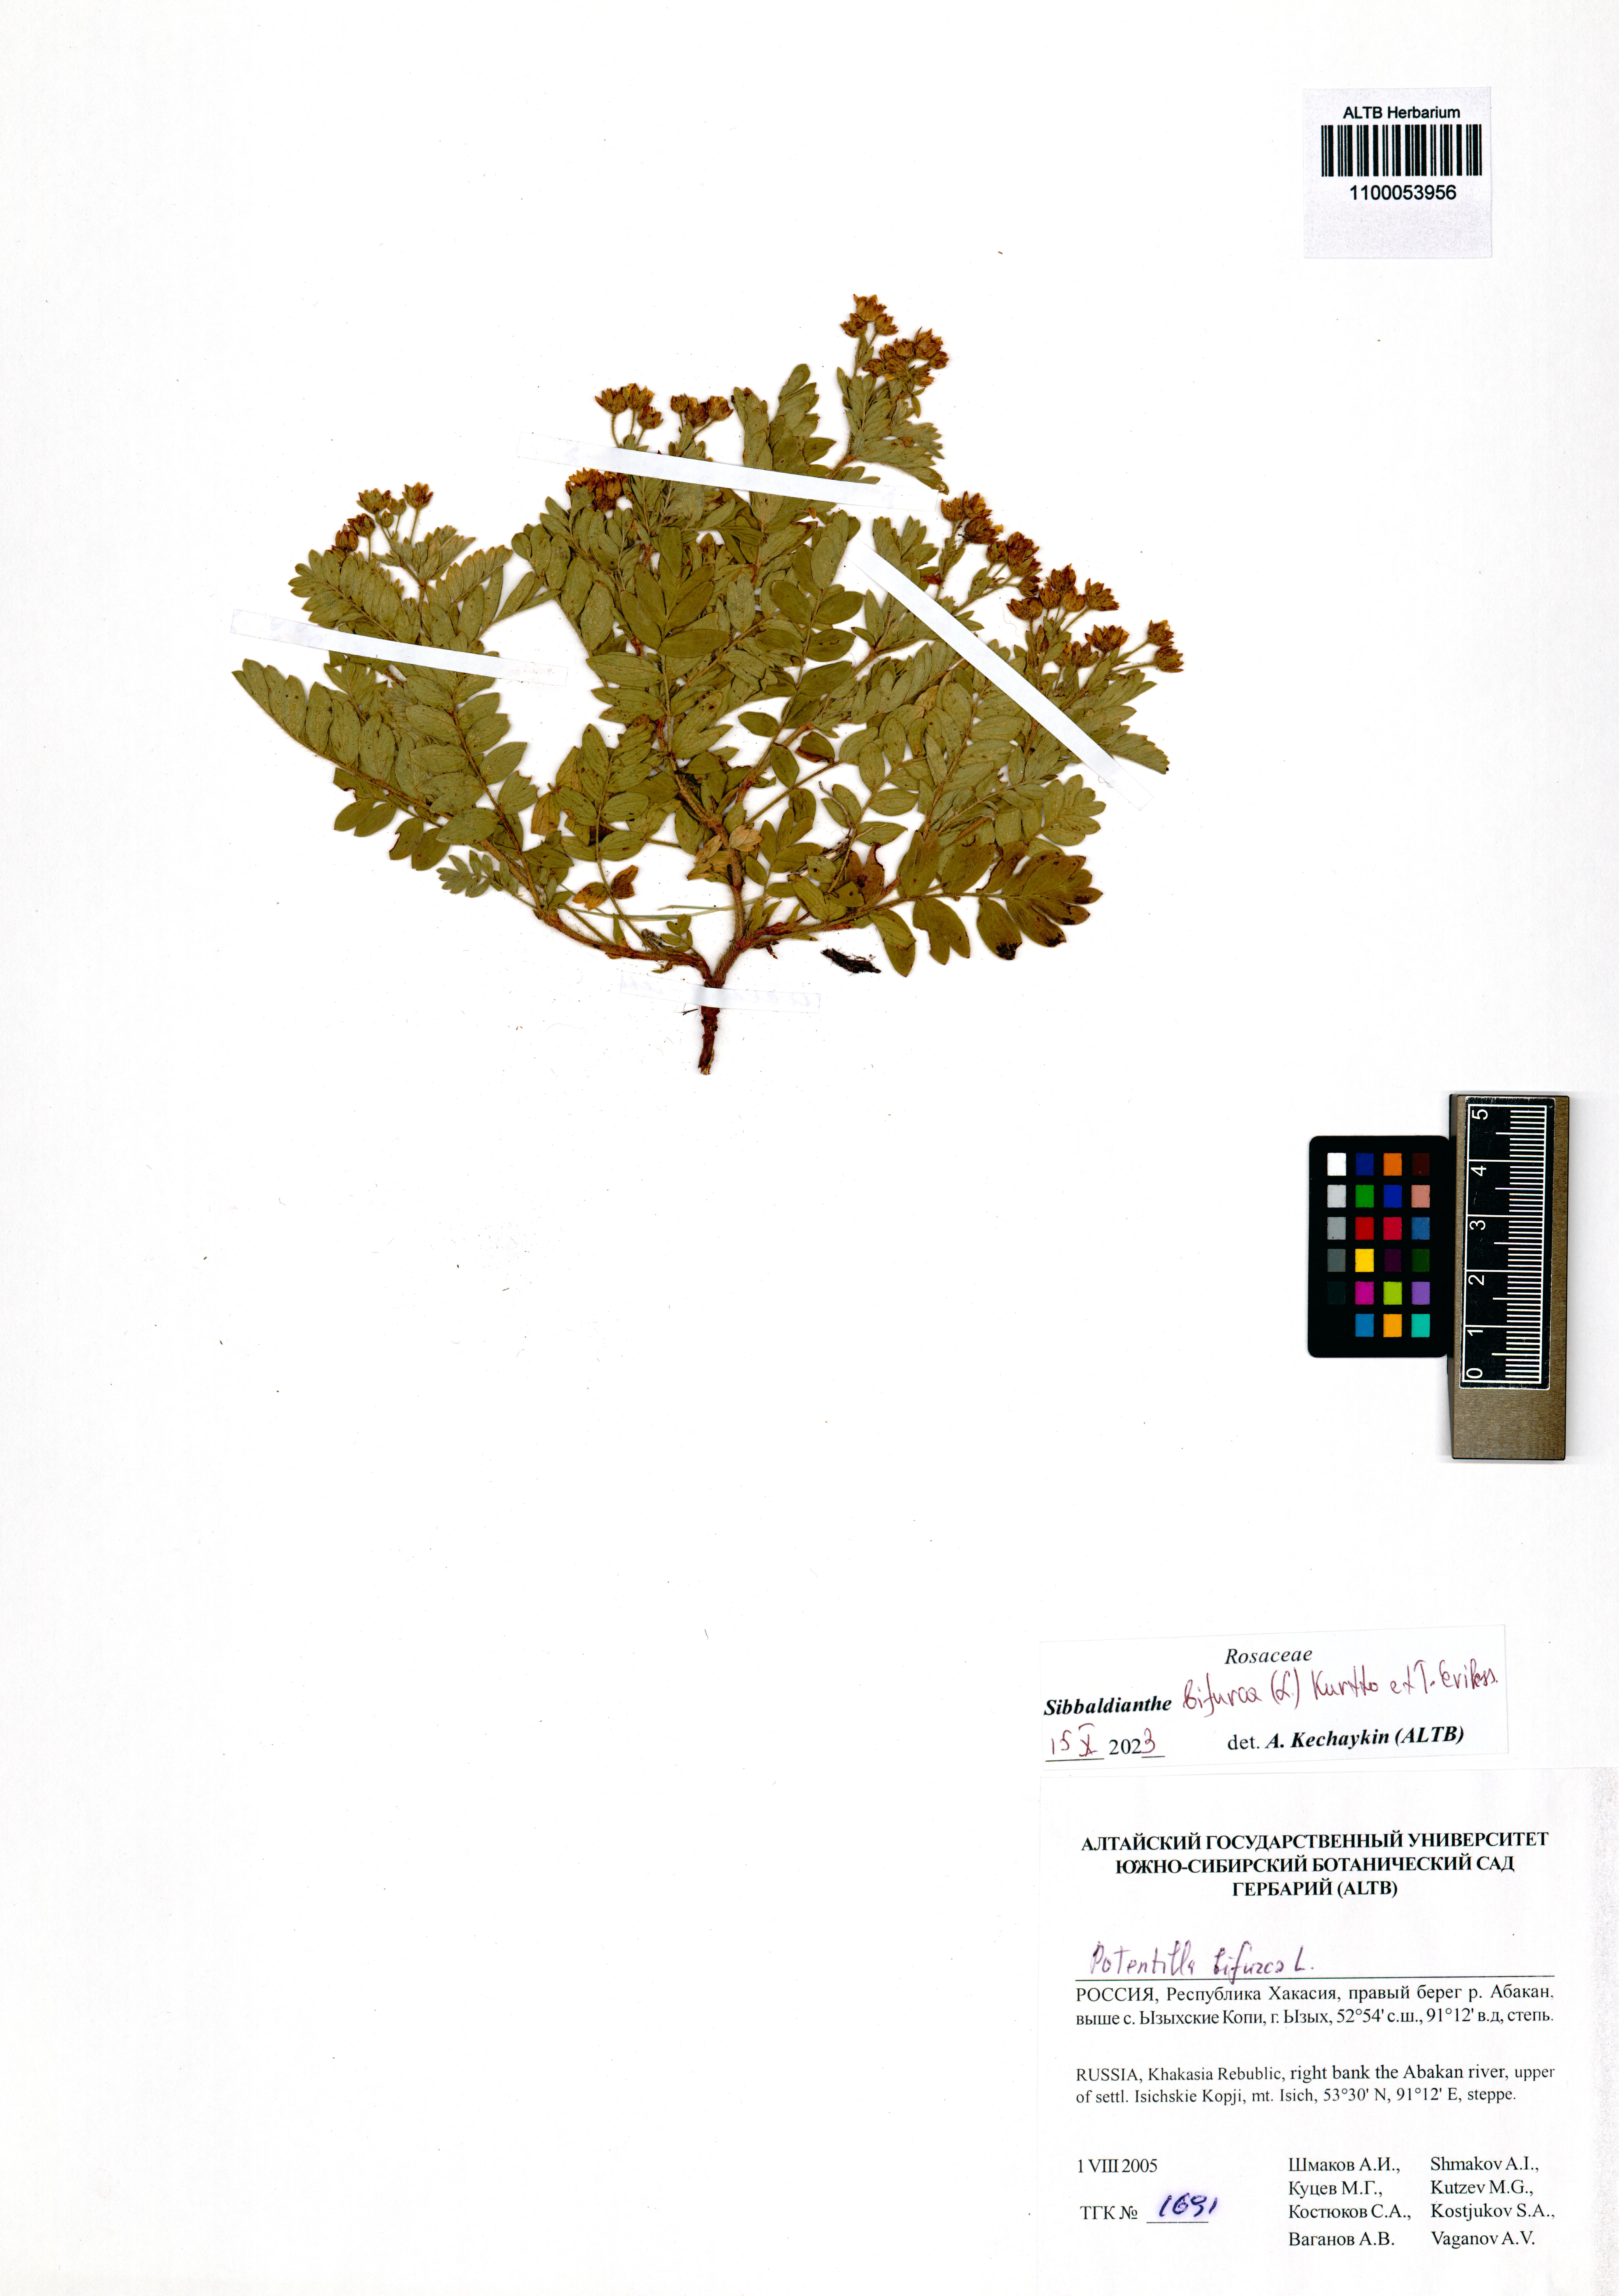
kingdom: Plantae
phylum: Tracheophyta
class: Magnoliopsida
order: Rosales
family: Rosaceae
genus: Sibbaldianthe
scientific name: Sibbaldianthe bifurca
